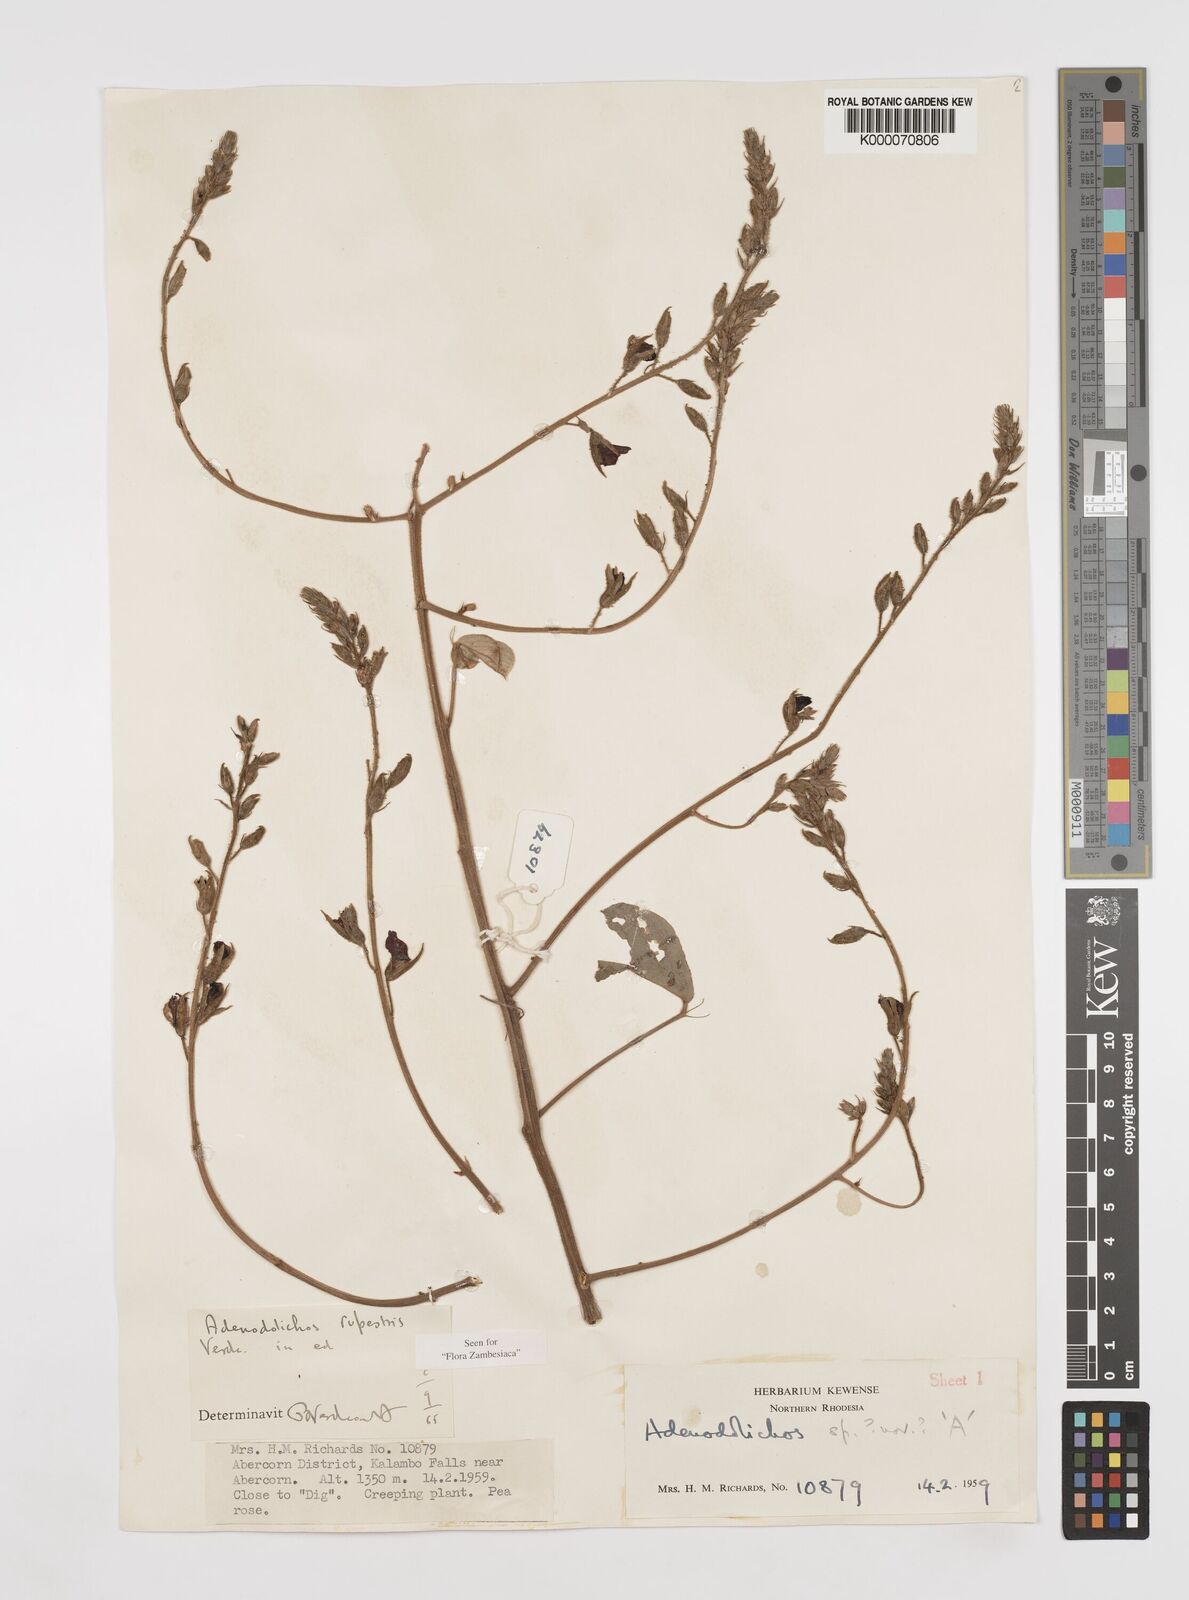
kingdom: Plantae
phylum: Tracheophyta
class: Magnoliopsida
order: Fabales
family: Fabaceae
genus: Adenodolichos
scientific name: Adenodolichos rupestris
